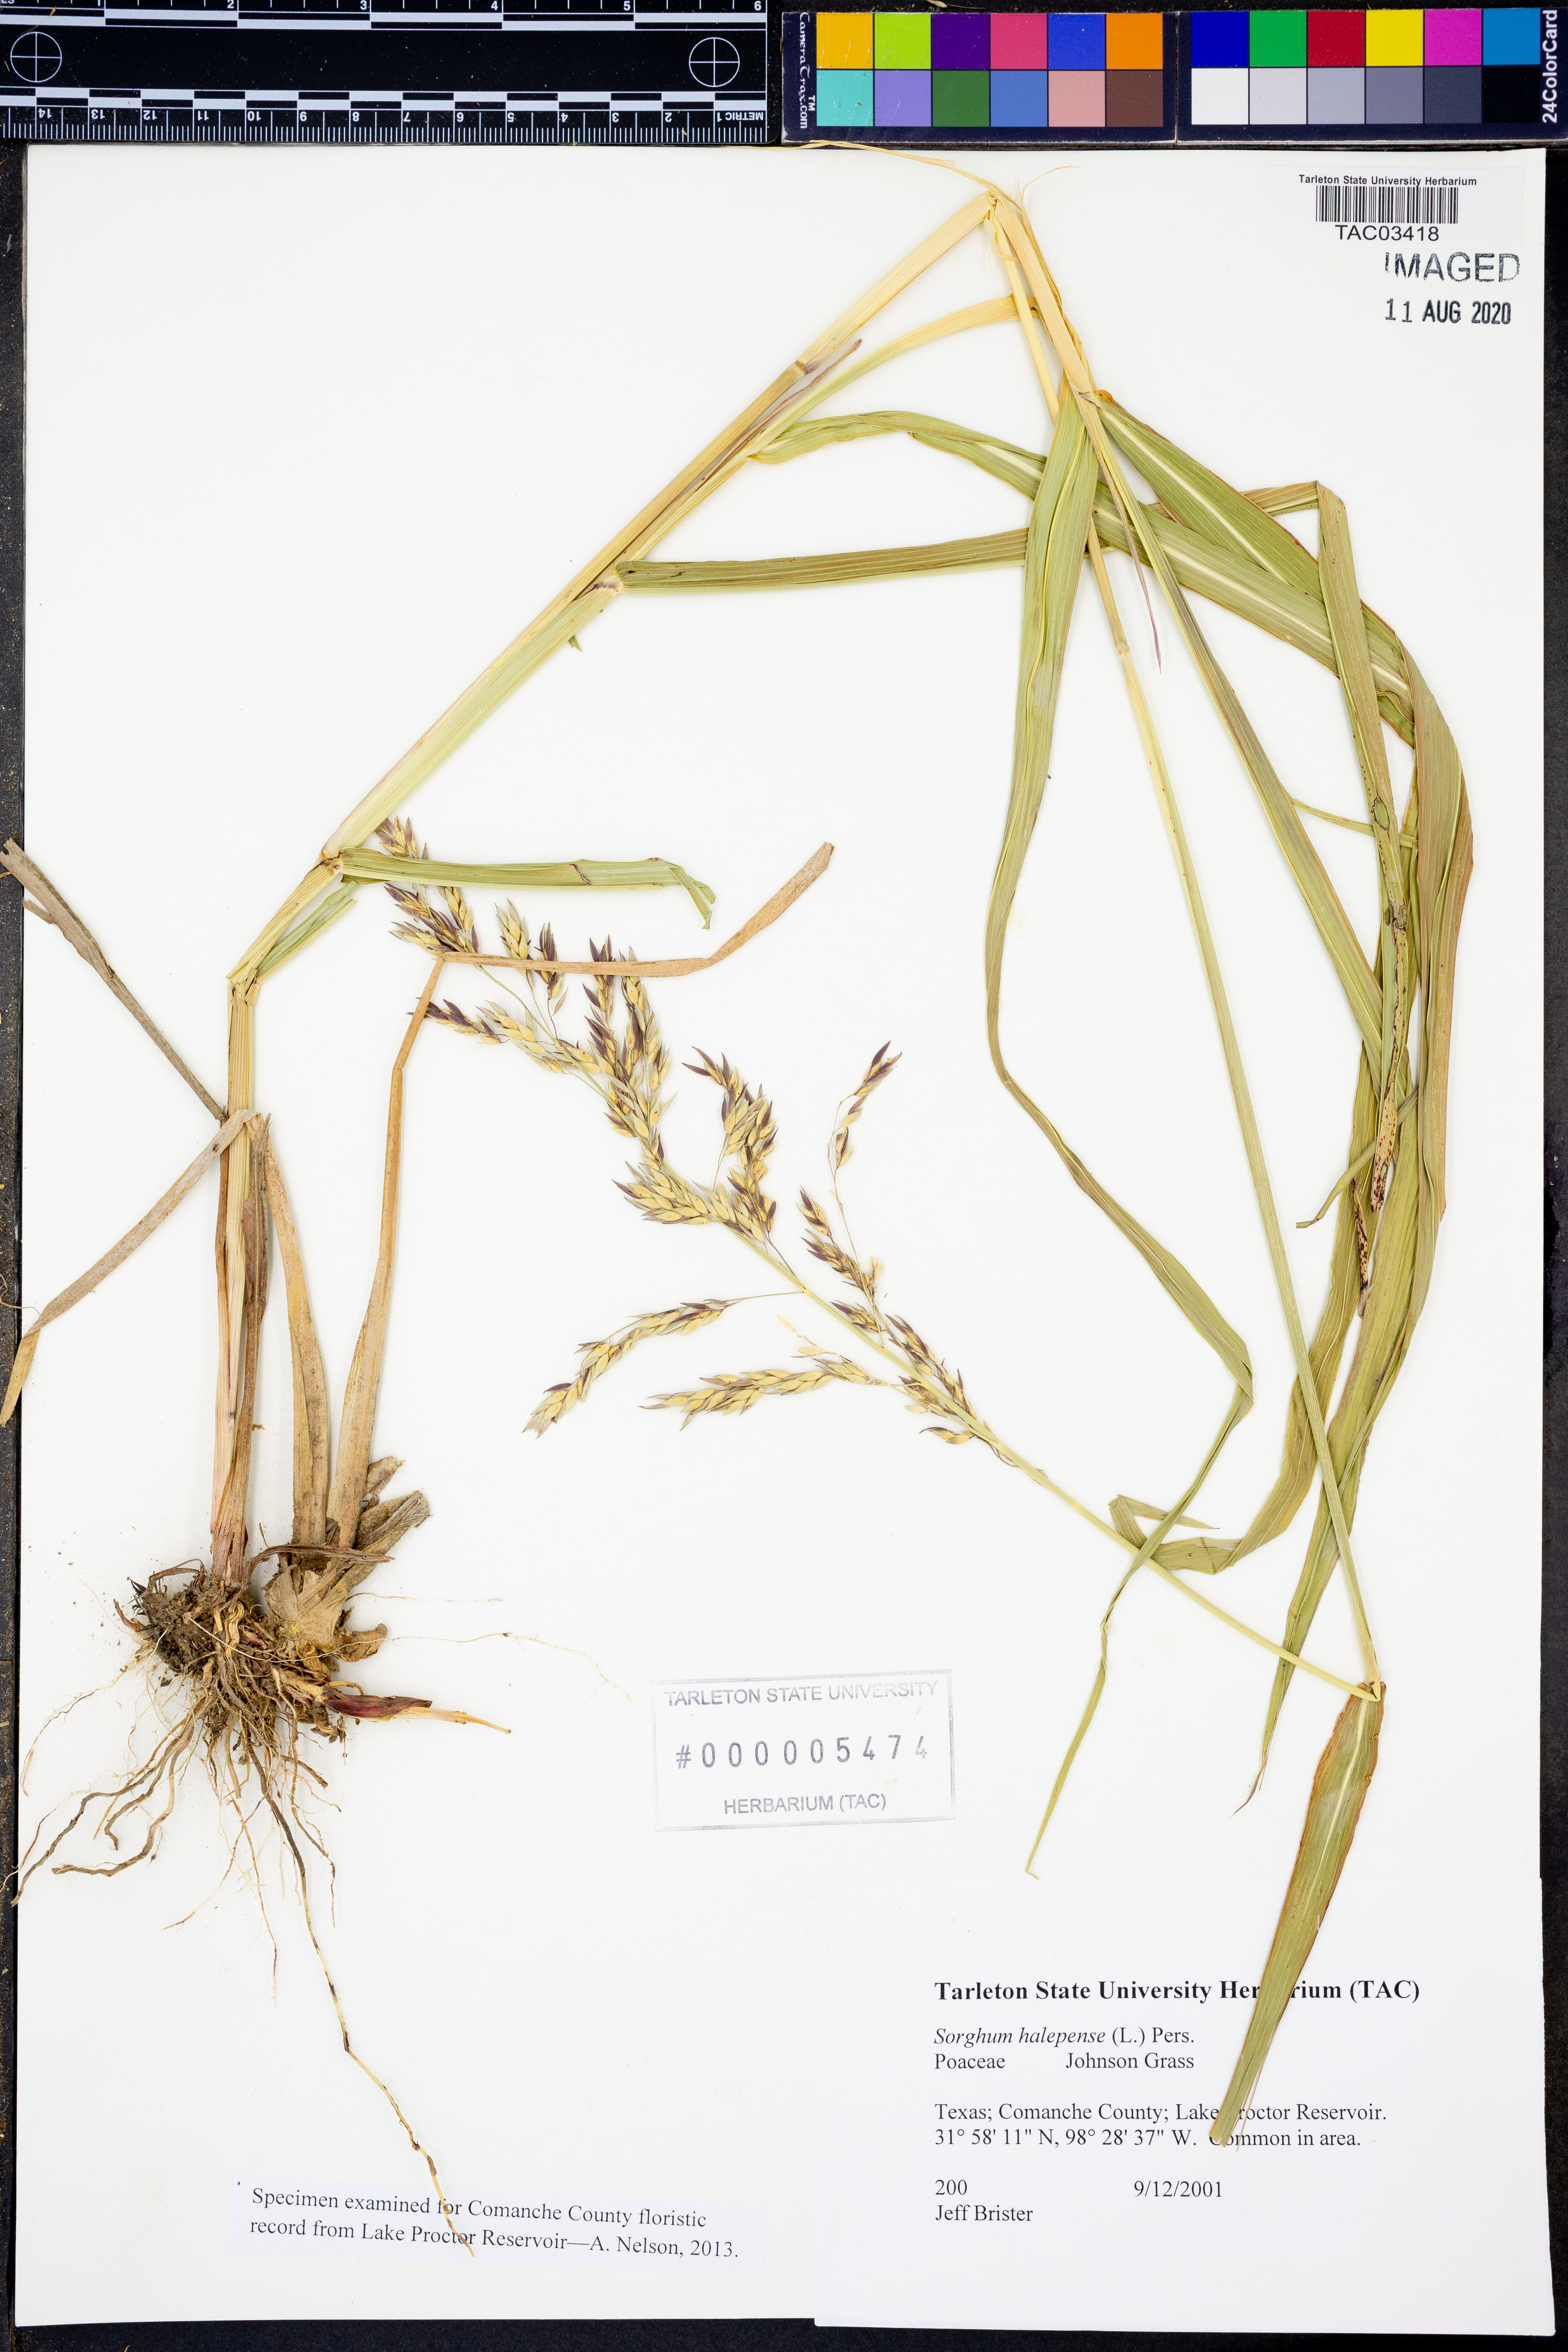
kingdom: Plantae
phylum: Tracheophyta
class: Liliopsida
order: Poales
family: Poaceae
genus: Sorghum
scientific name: Sorghum halepense
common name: Johnson-grass
